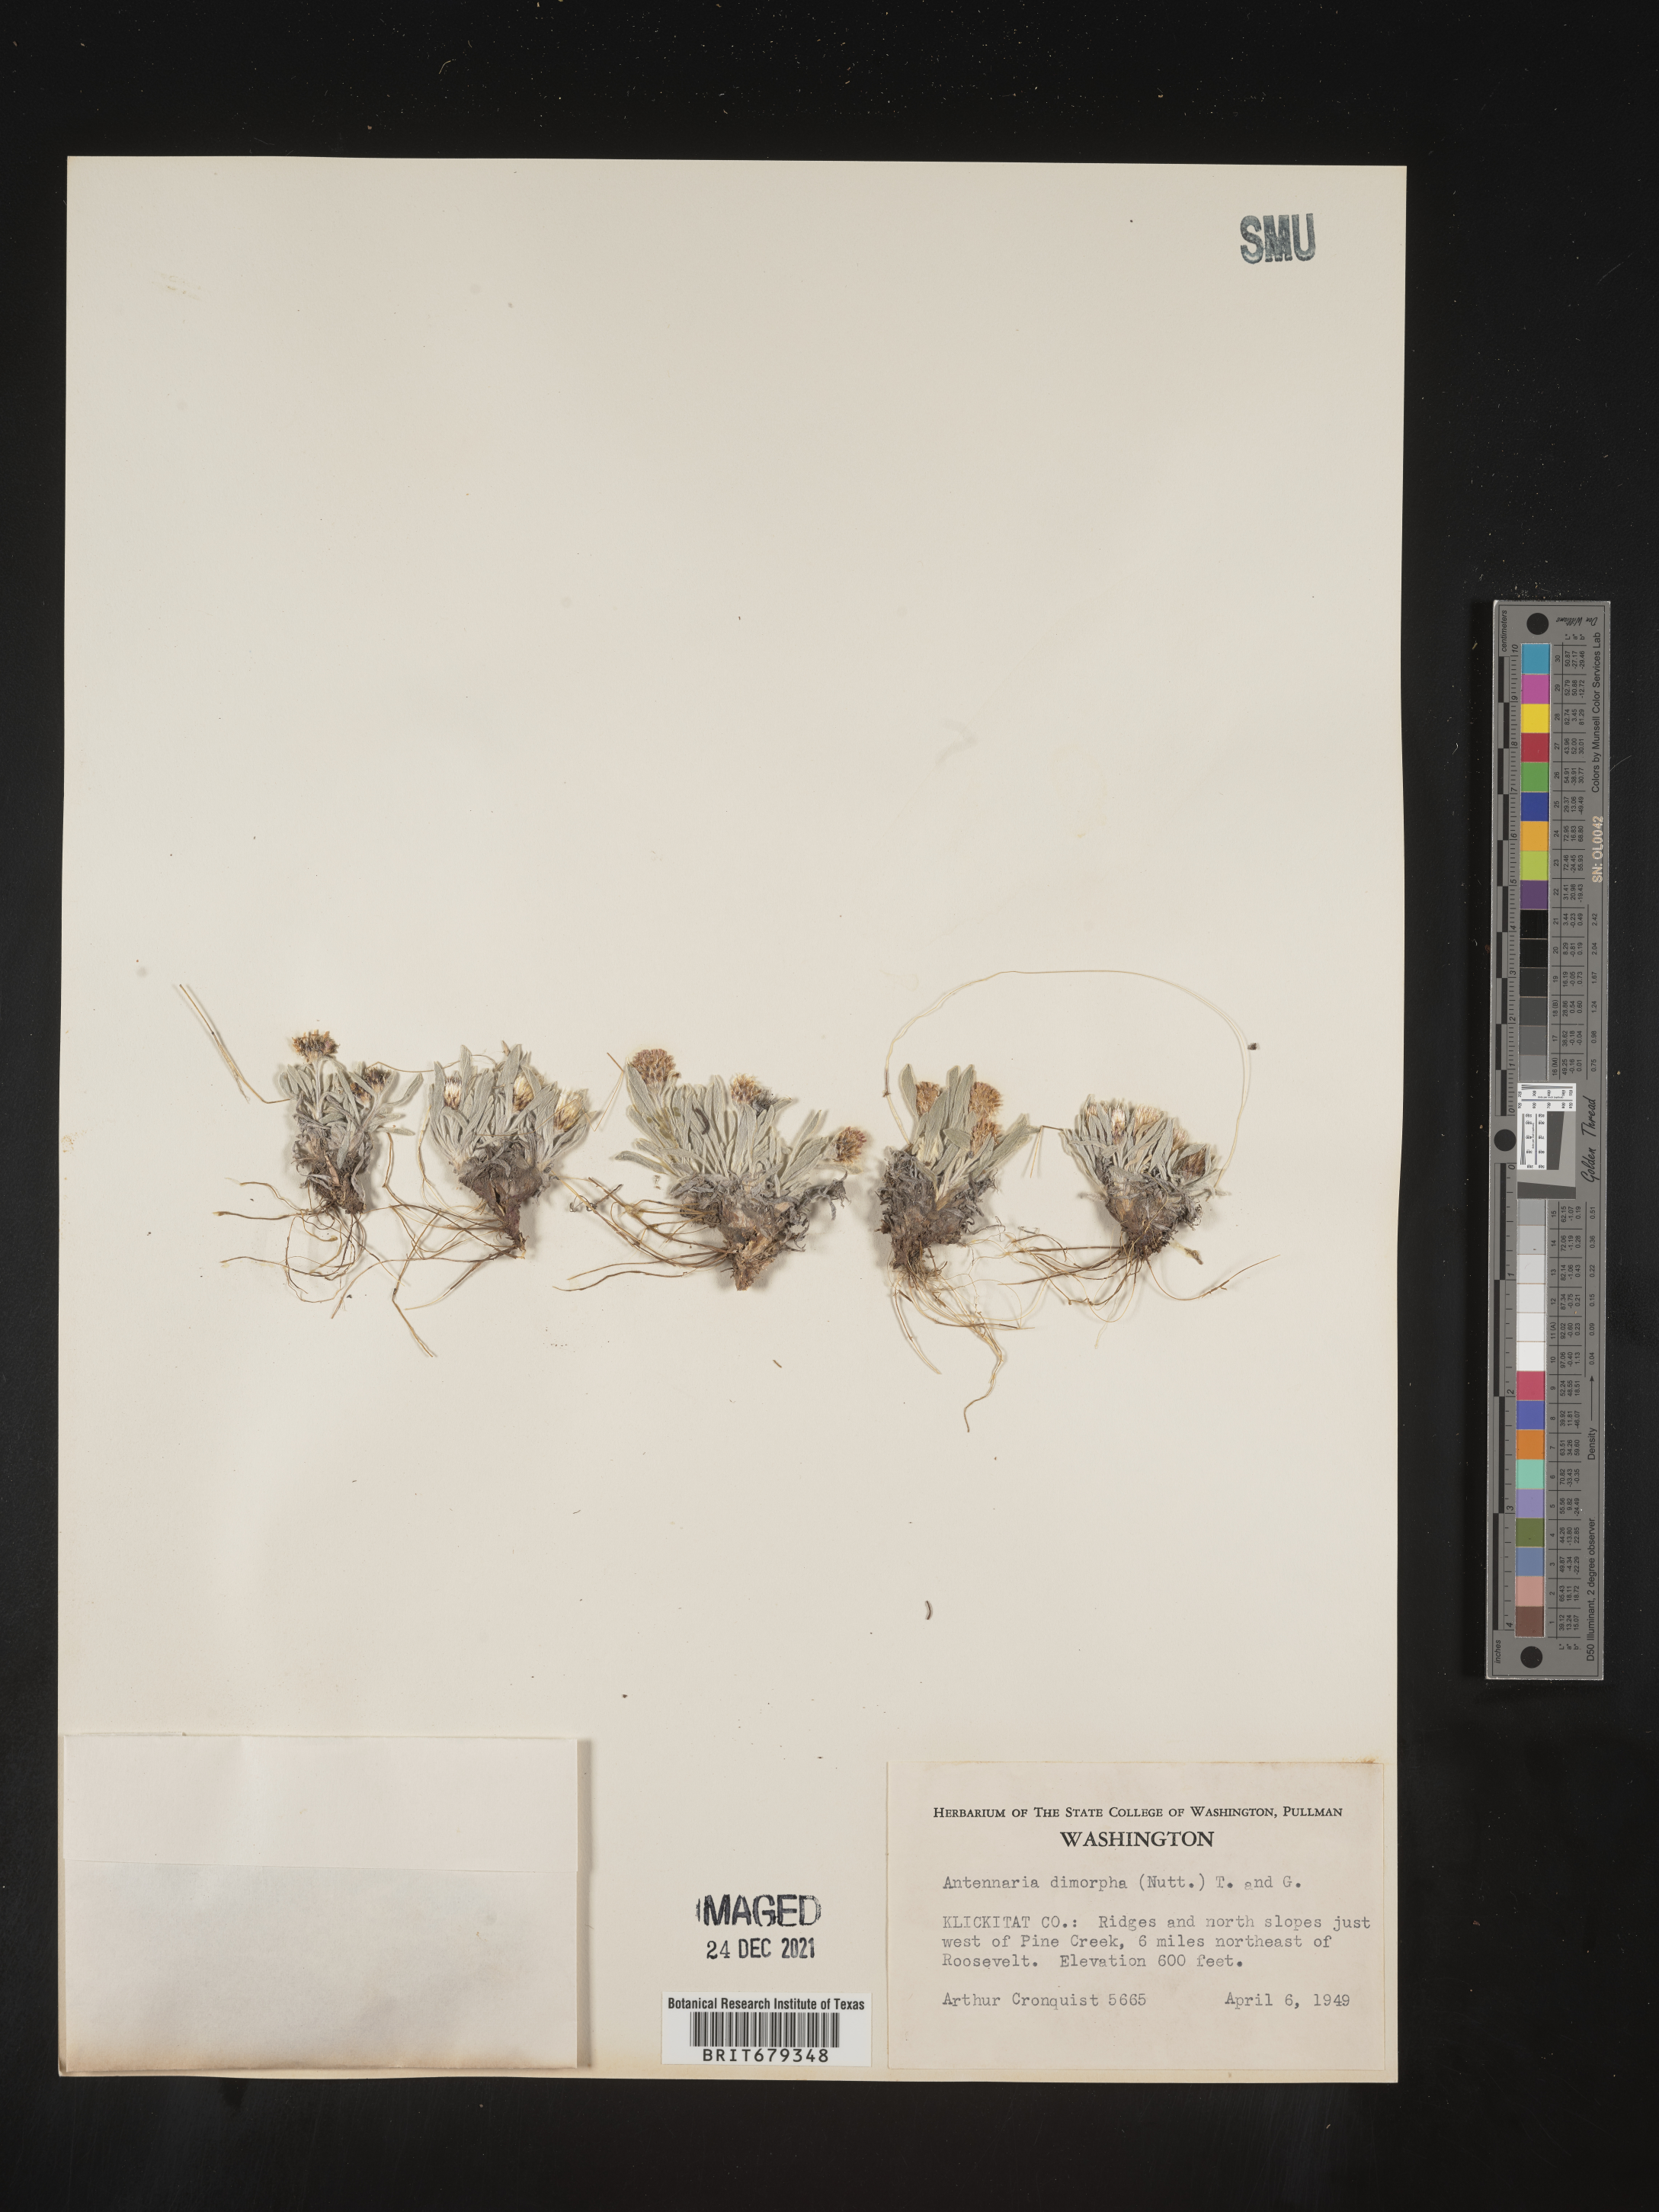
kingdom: Plantae
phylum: Tracheophyta
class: Magnoliopsida
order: Asterales
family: Asteraceae
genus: Antennaria
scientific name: Antennaria dimorpha
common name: Cushion pussytoes
